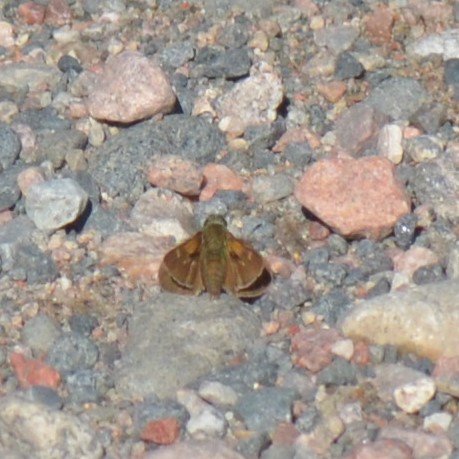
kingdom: Animalia
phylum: Arthropoda
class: Insecta
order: Lepidoptera
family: Hesperiidae
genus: Polites
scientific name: Polites themistocles
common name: Tawny-edged Skipper
